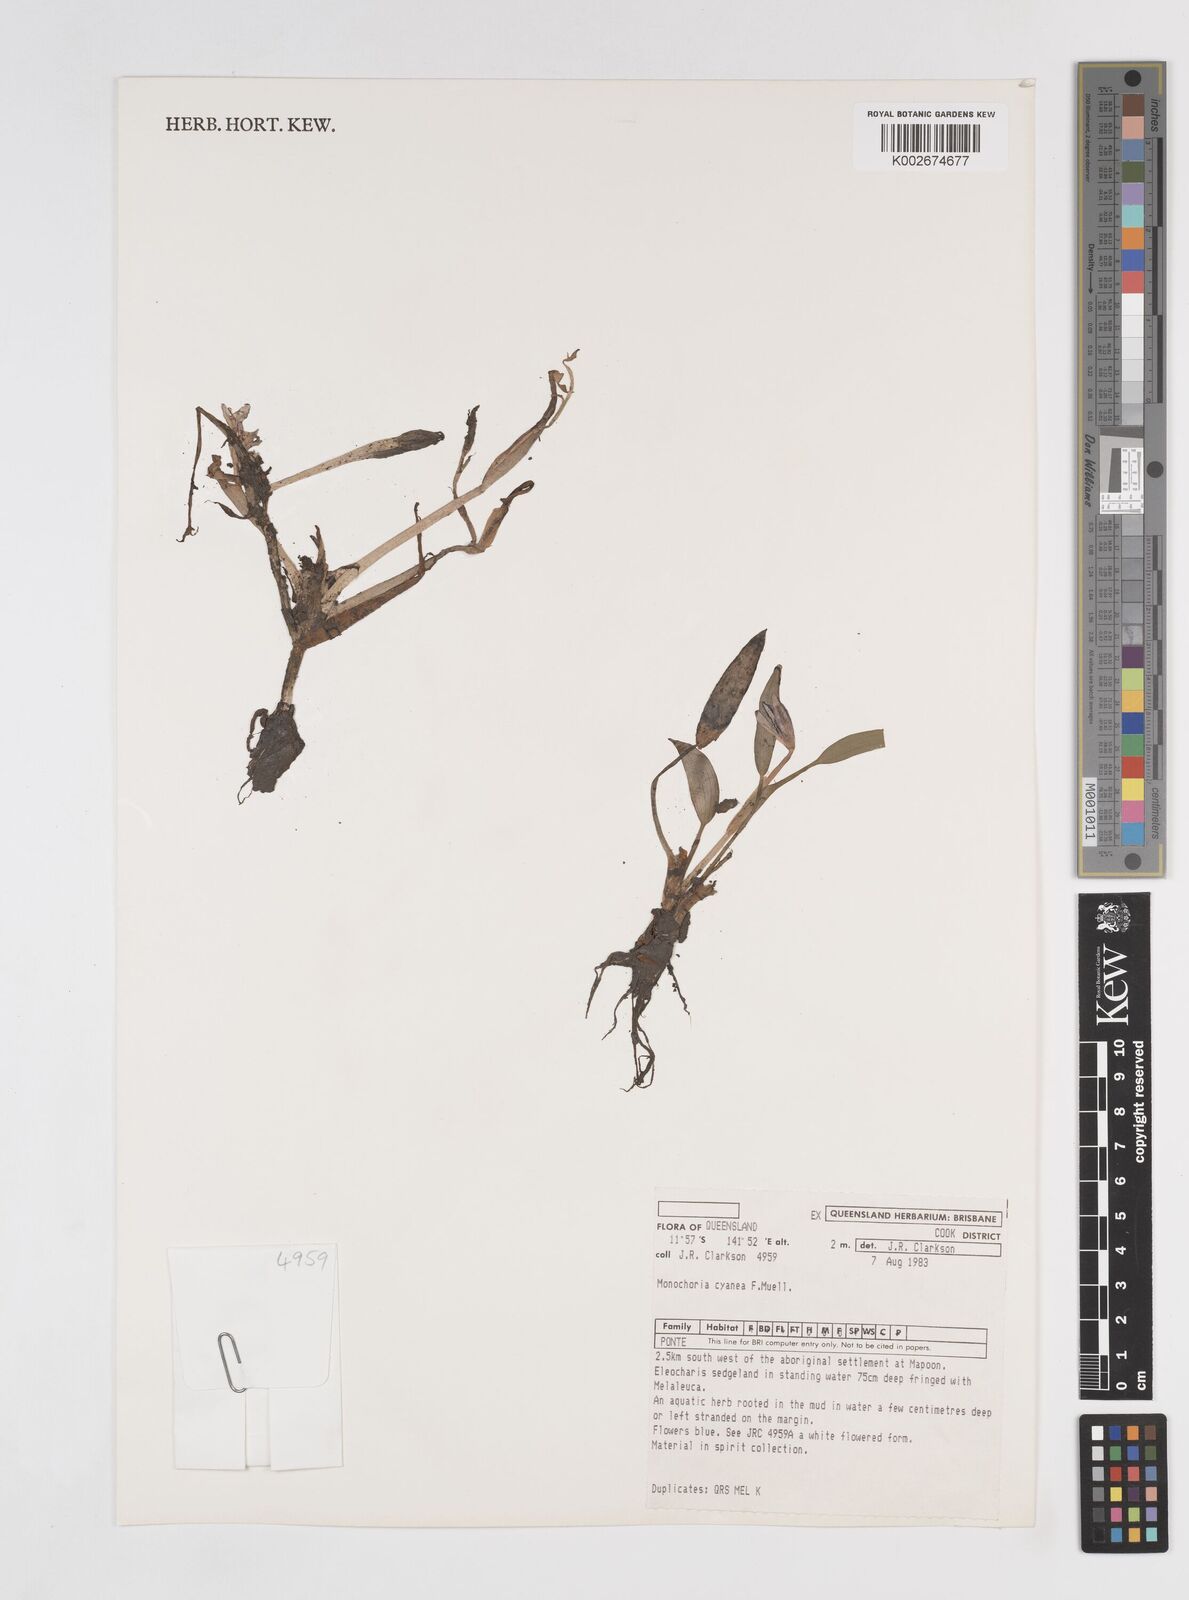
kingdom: Plantae
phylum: Tracheophyta
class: Liliopsida
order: Commelinales
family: Pontederiaceae
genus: Pontederia
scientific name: Pontederia cyanea
